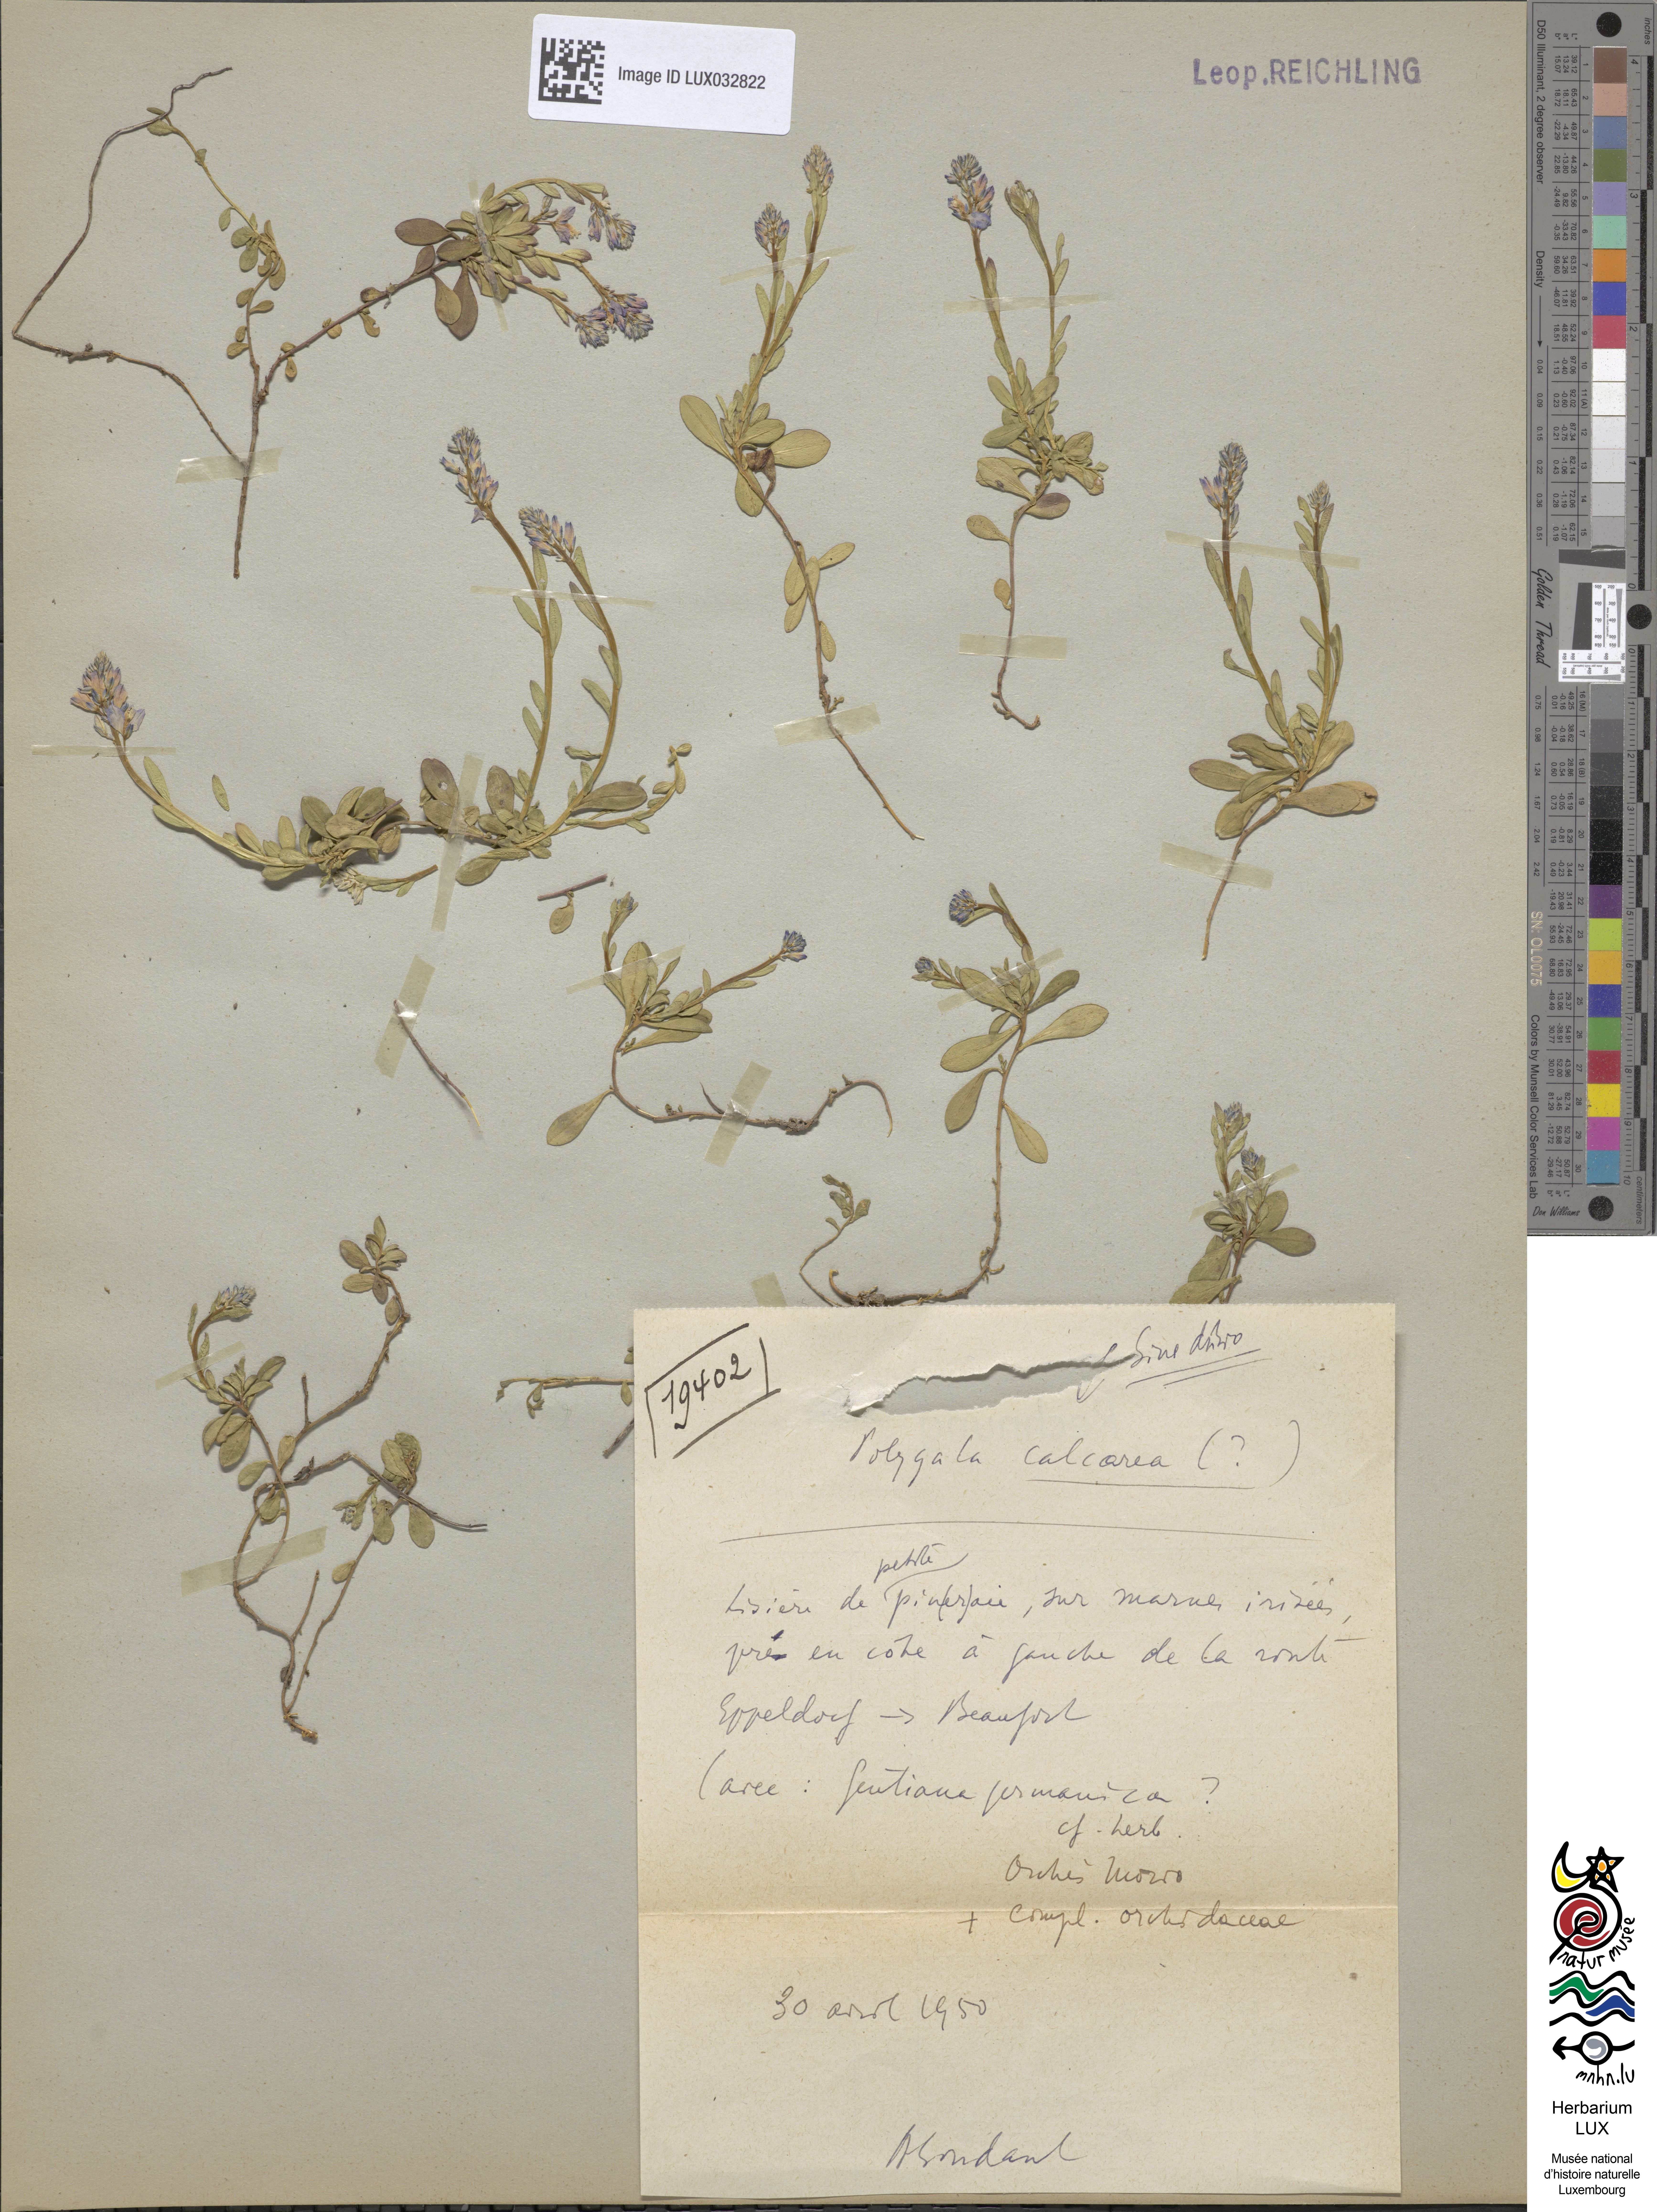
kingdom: Plantae
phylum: Tracheophyta
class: Magnoliopsida
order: Fabales
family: Polygalaceae
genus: Polygala
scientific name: Polygala calcarea
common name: Chalk milkwort
